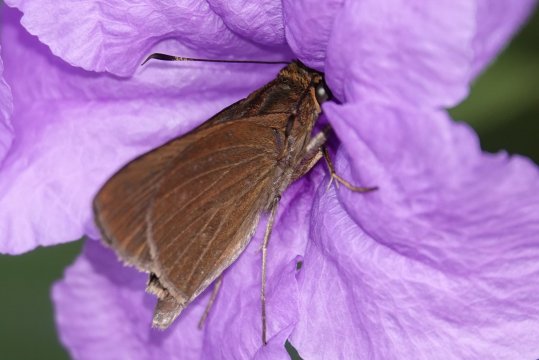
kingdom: Animalia
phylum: Arthropoda
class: Insecta
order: Lepidoptera
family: Hesperiidae
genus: Synapte
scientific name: Synapte silius
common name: Rain-forest Faceted-Skipper
